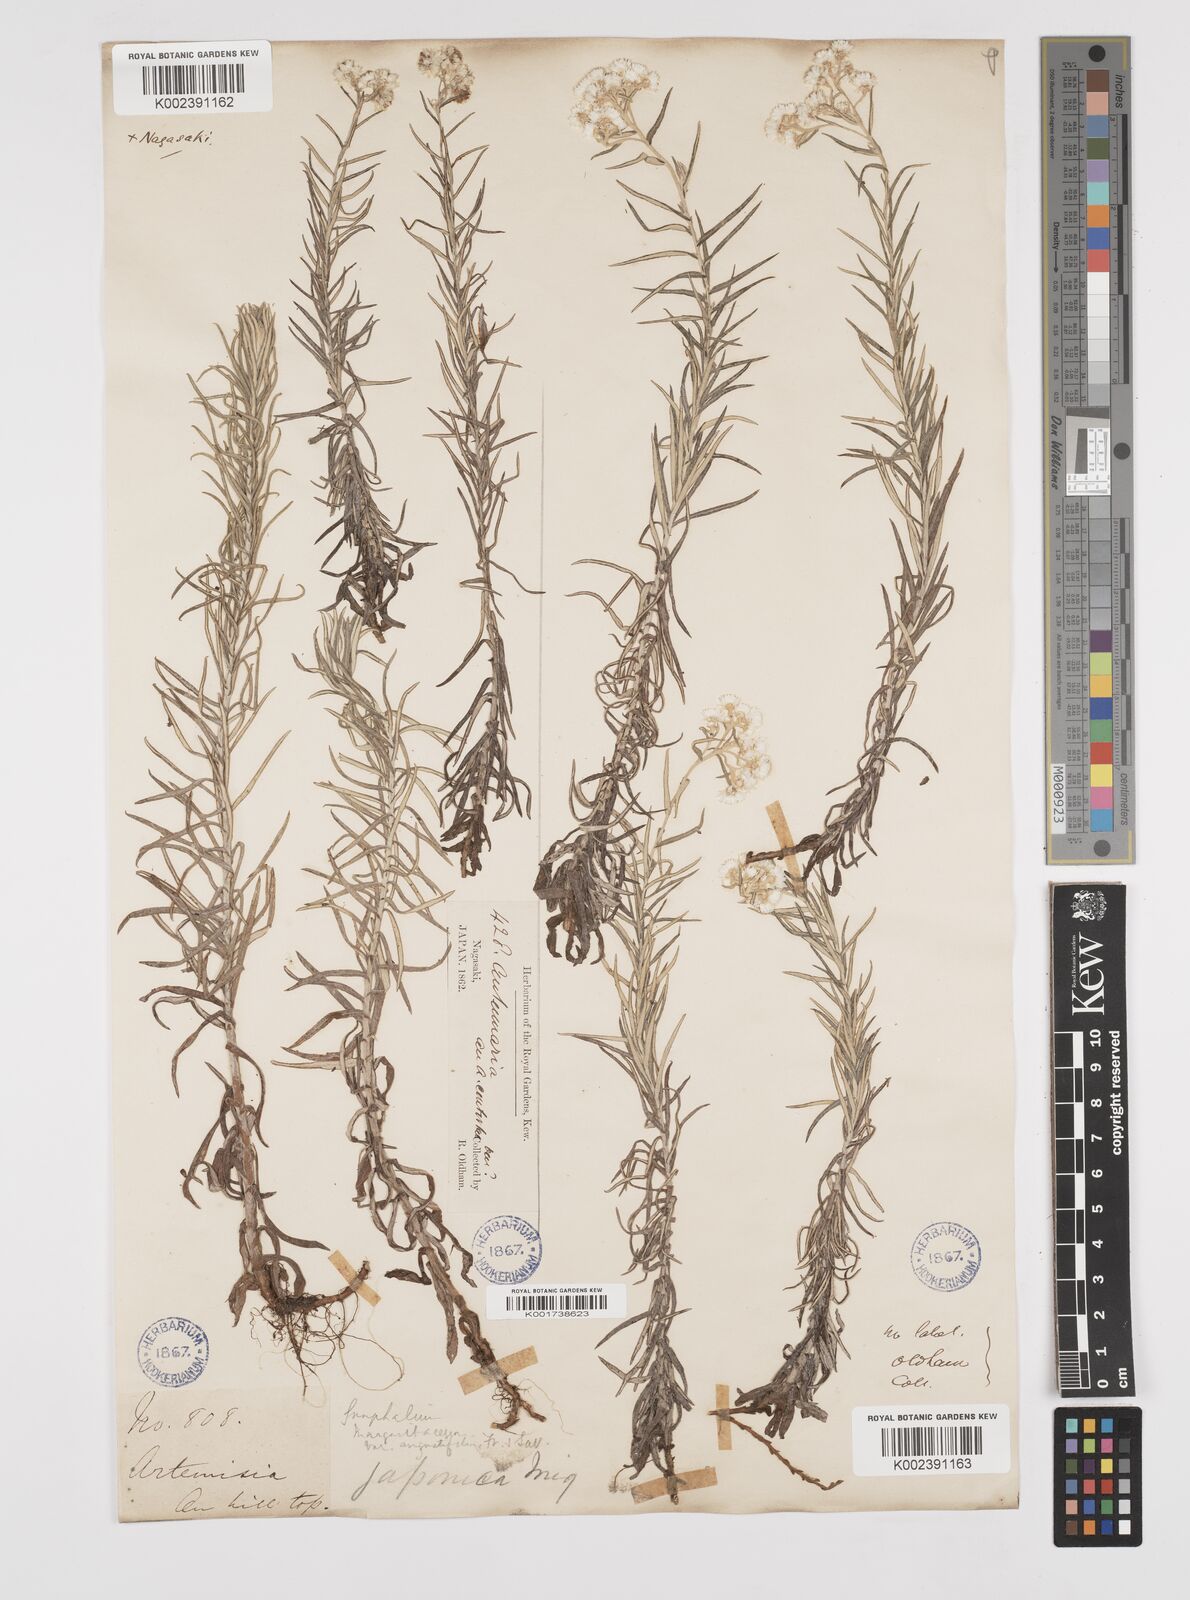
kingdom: Plantae
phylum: Tracheophyta
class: Magnoliopsida
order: Asterales
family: Asteraceae
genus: Anaphalis
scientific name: Anaphalis margaritacea
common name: Pearly everlasting
